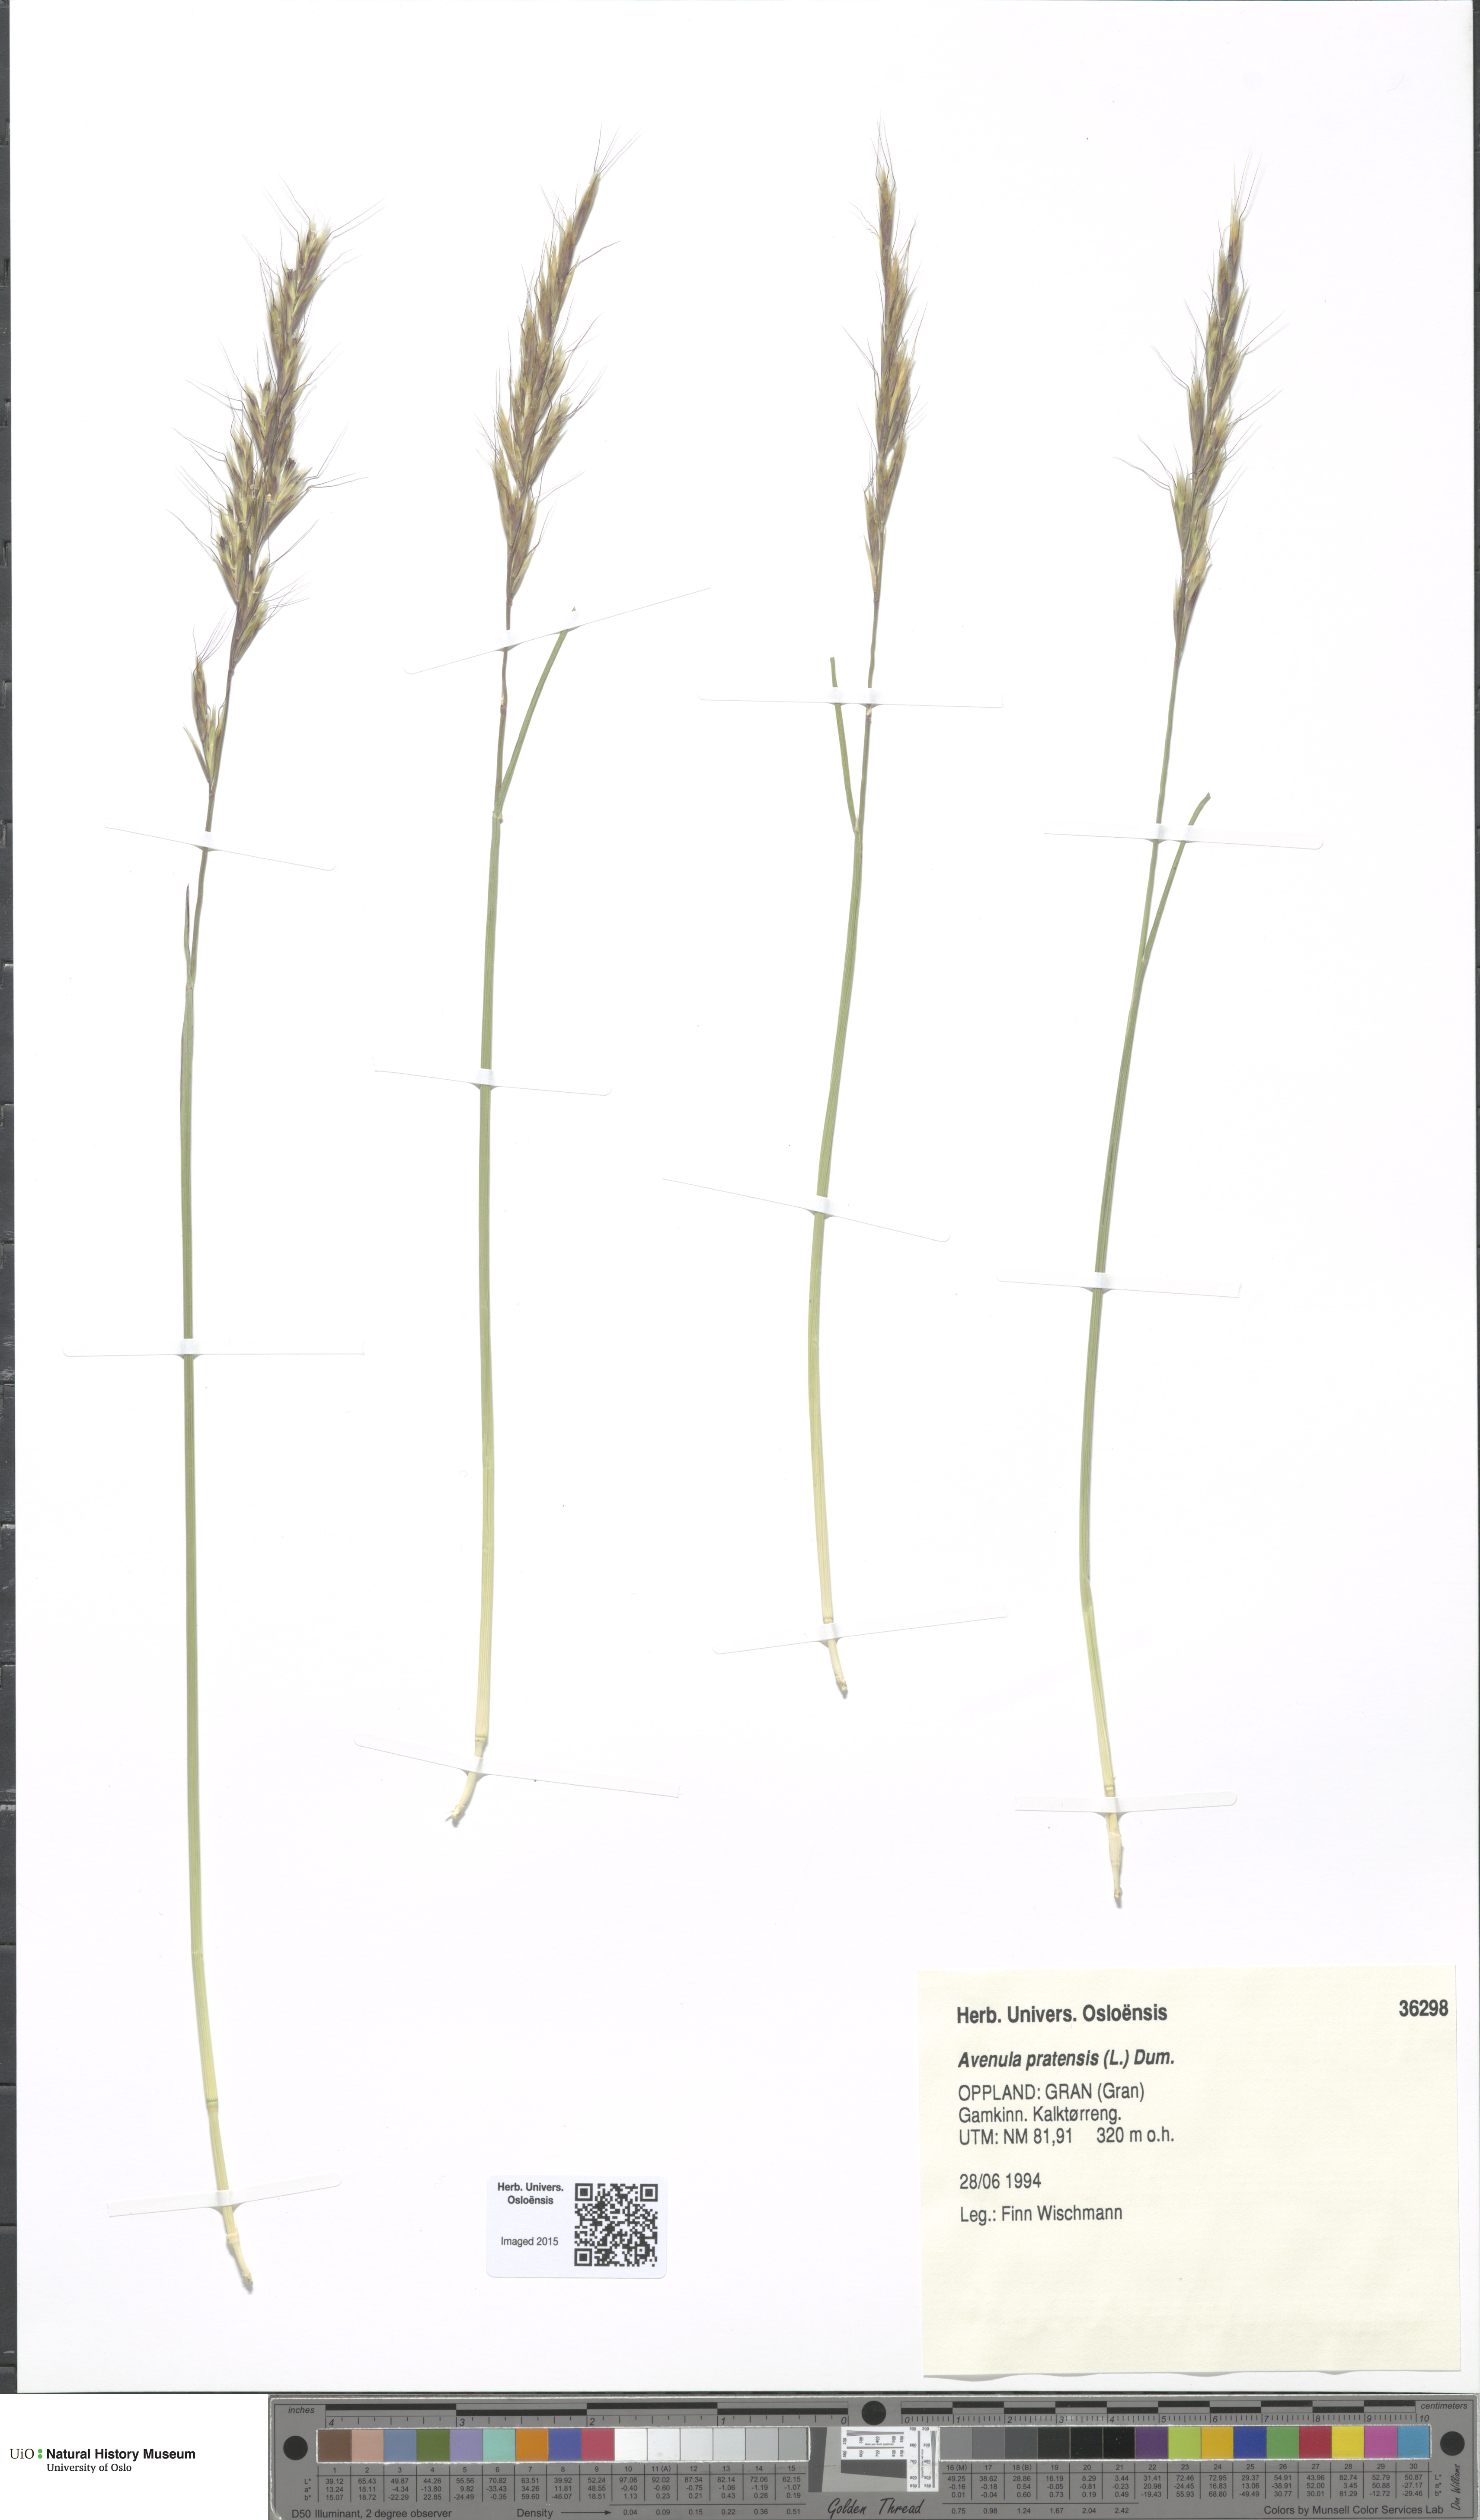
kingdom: Plantae
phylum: Tracheophyta
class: Liliopsida
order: Poales
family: Poaceae
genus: Helictochloa
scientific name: Helictochloa pratensis
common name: Meadow oat grass
